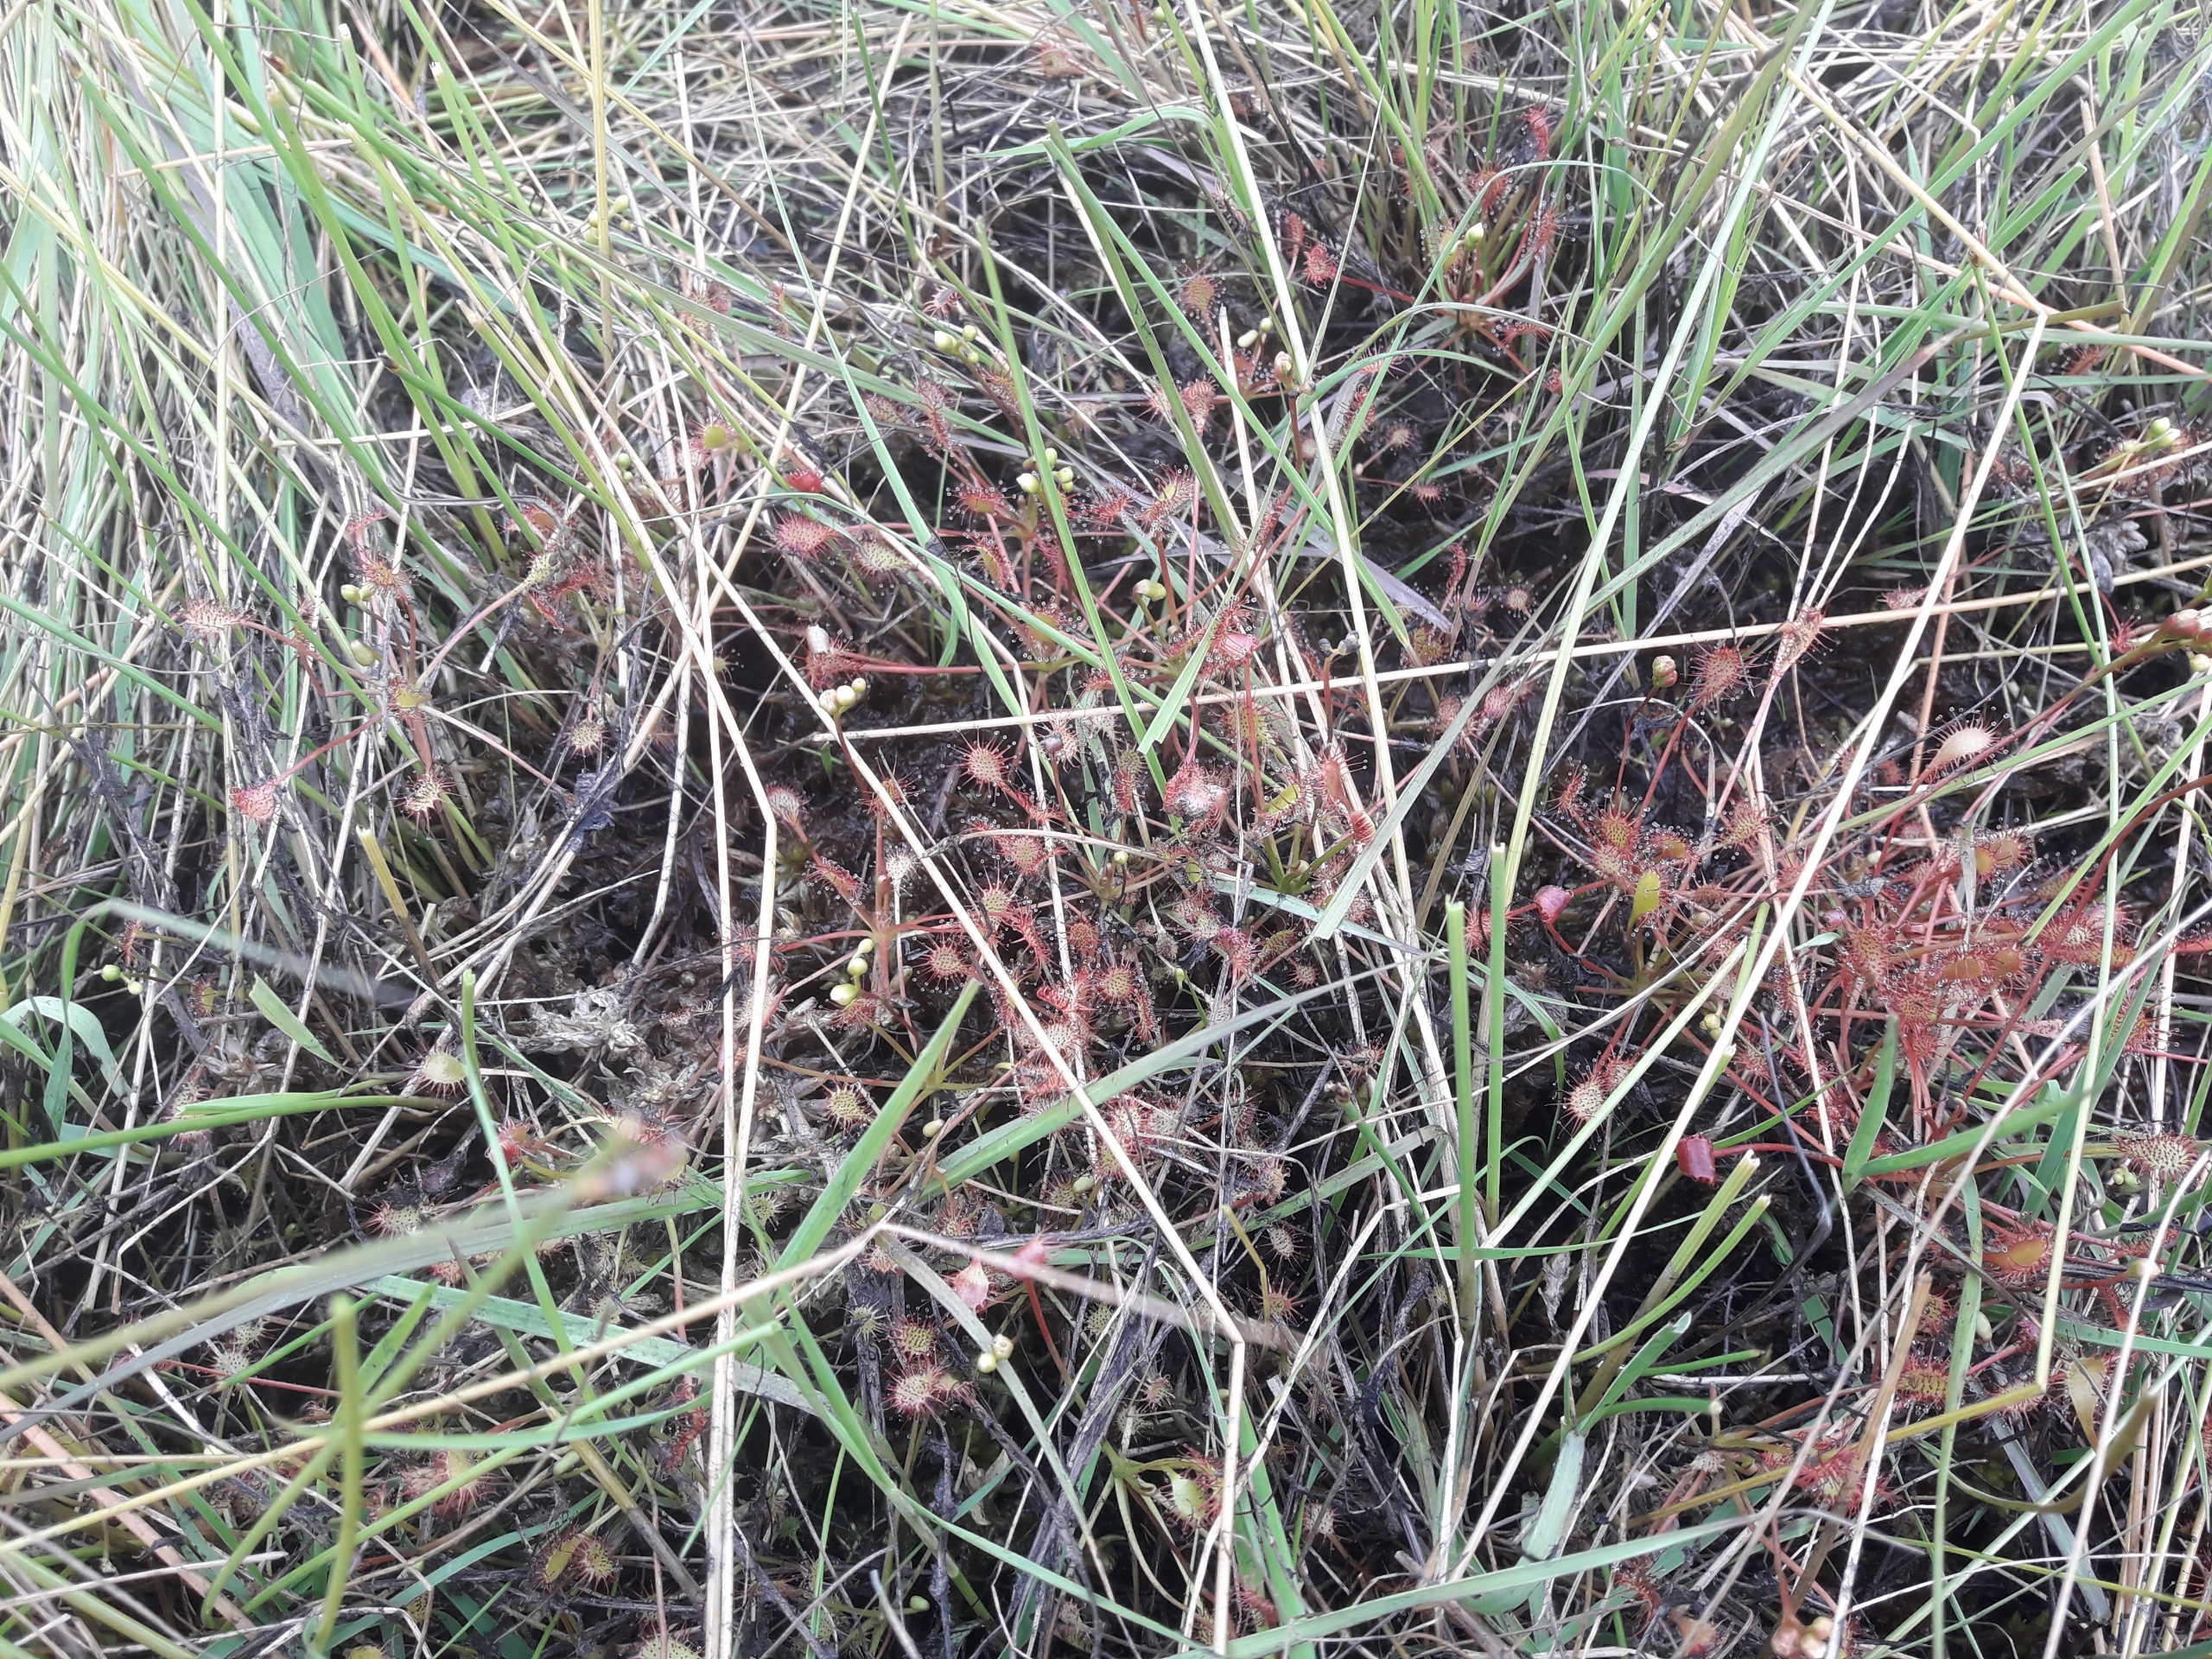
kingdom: Plantae
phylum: Tracheophyta
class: Magnoliopsida
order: Caryophyllales
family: Droseraceae
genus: Drosera
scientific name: Drosera intermedia
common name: Liden soldug
